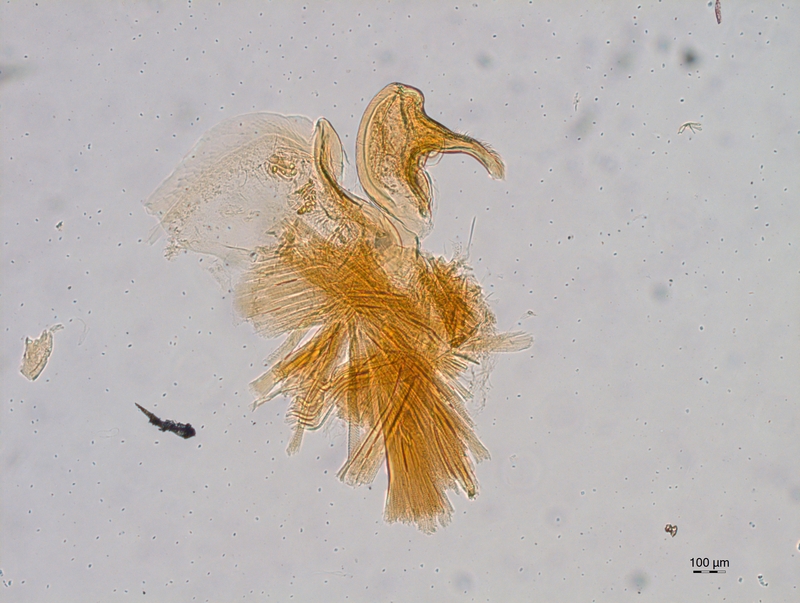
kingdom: Animalia
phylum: Arthropoda
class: Diplopoda
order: Chordeumatida
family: Attemsiidae
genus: Attemsia
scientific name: Attemsia falcifera
